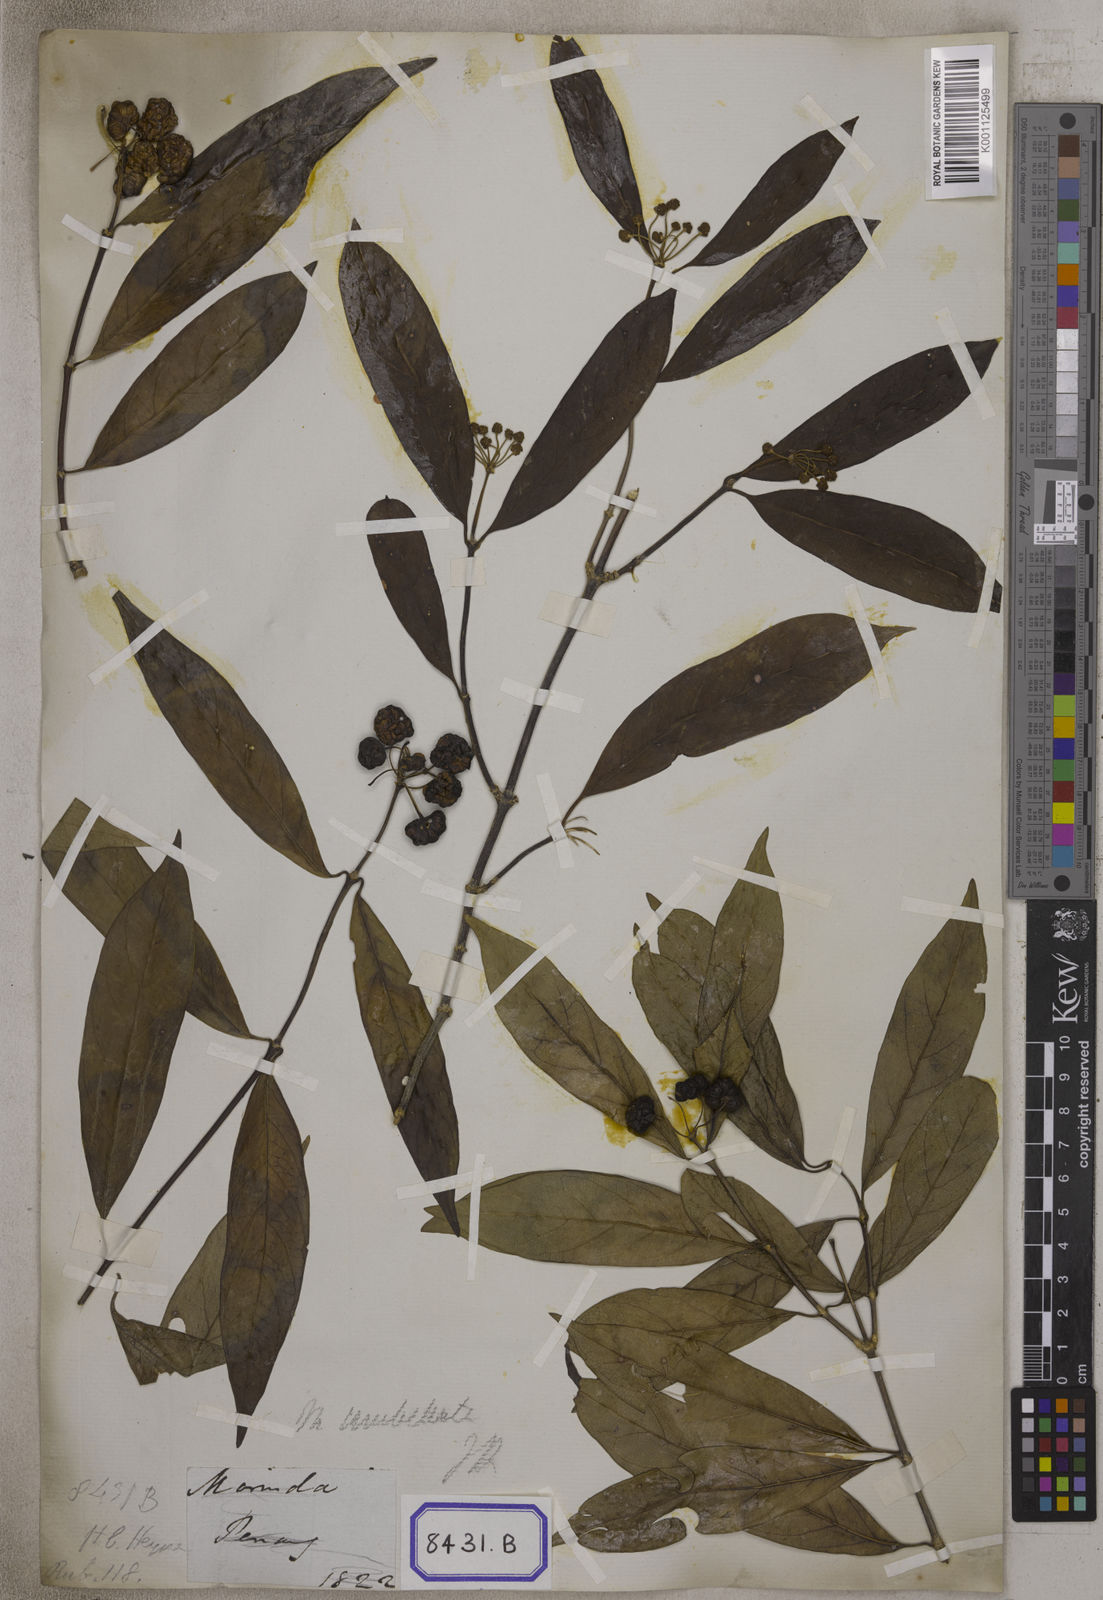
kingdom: Plantae
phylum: Tracheophyta
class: Magnoliopsida
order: Gentianales
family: Rubiaceae
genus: Gynochthodes
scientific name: Gynochthodes umbellata
